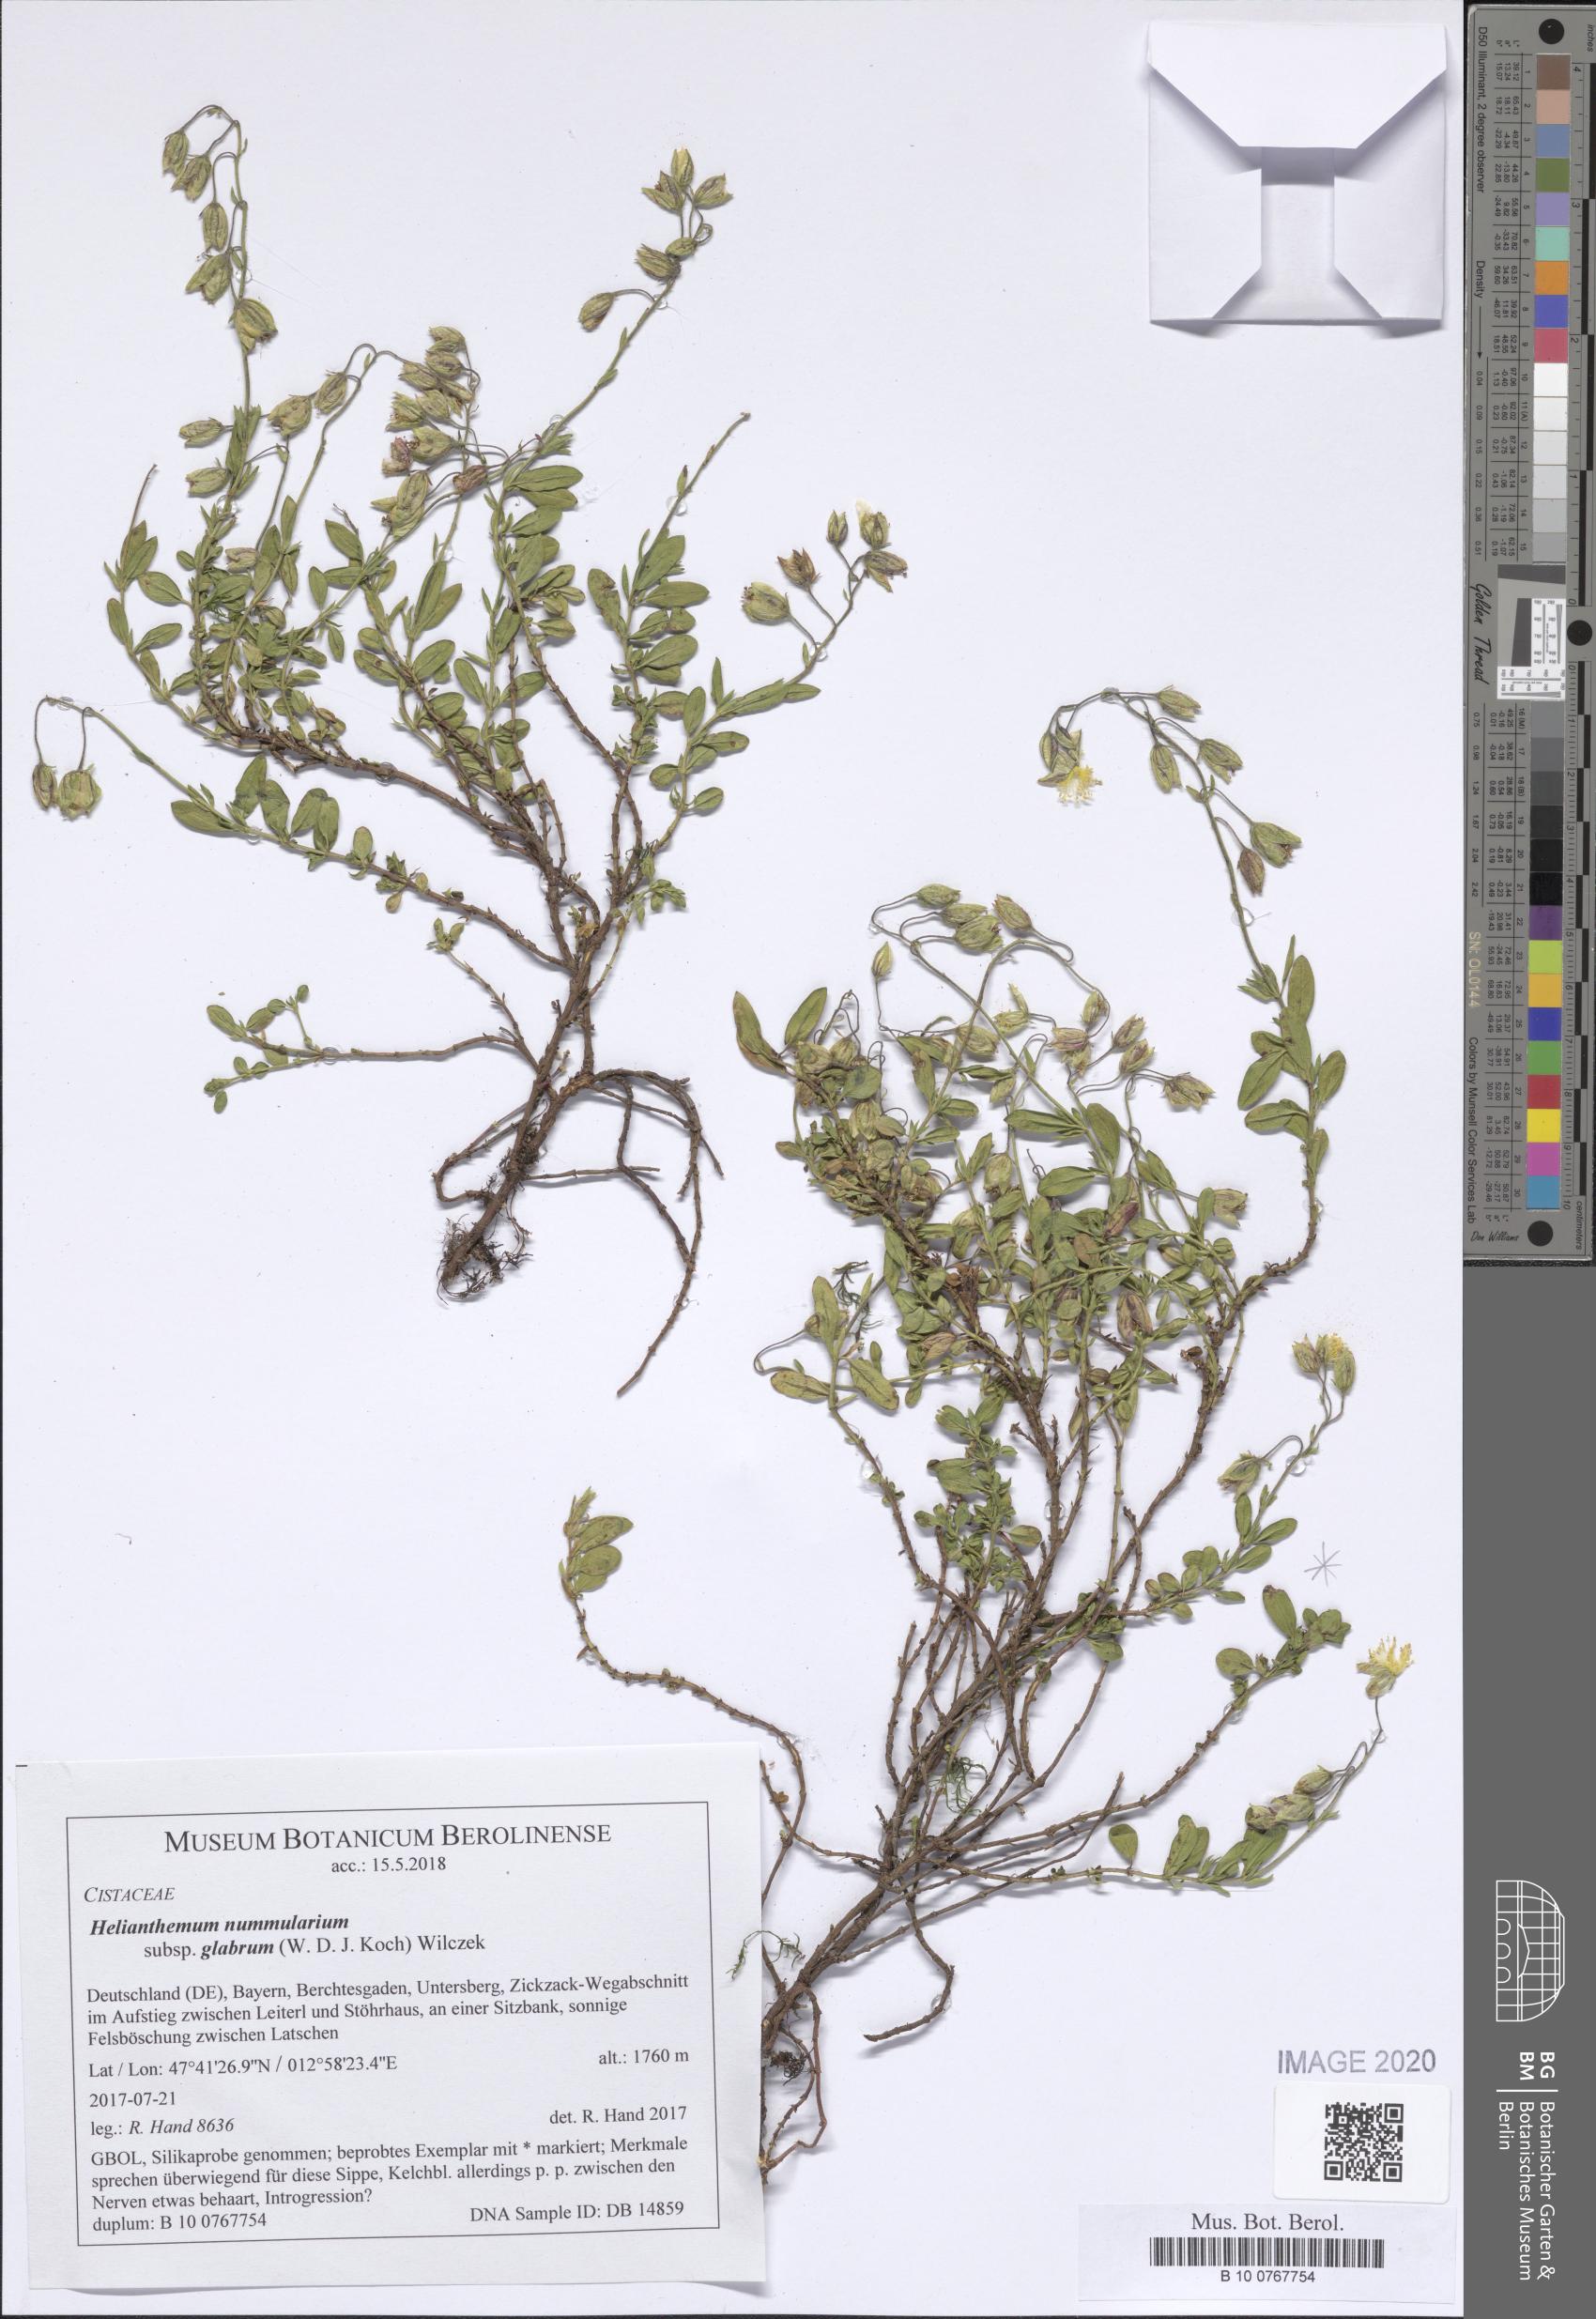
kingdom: Plantae
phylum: Tracheophyta
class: Magnoliopsida
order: Malvales
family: Cistaceae
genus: Helianthemum
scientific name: Helianthemum nummularium
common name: Common rock-rose
